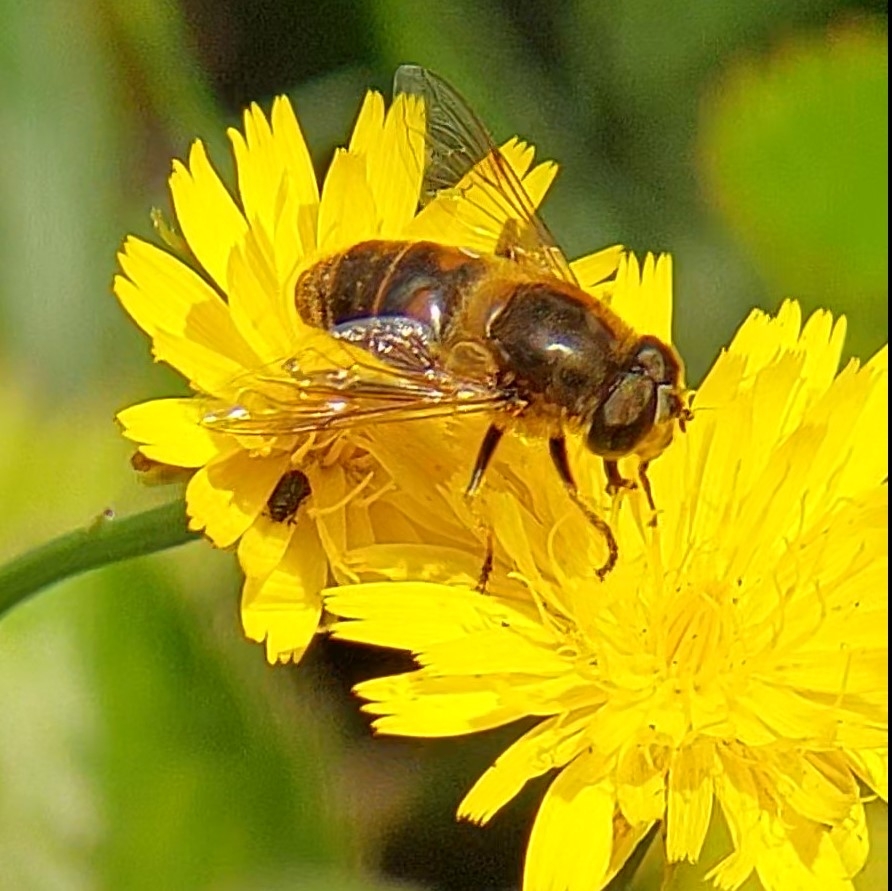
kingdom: Animalia
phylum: Arthropoda
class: Insecta
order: Diptera
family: Syrphidae
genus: Eristalis
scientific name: Eristalis tenax
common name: Droneflue
